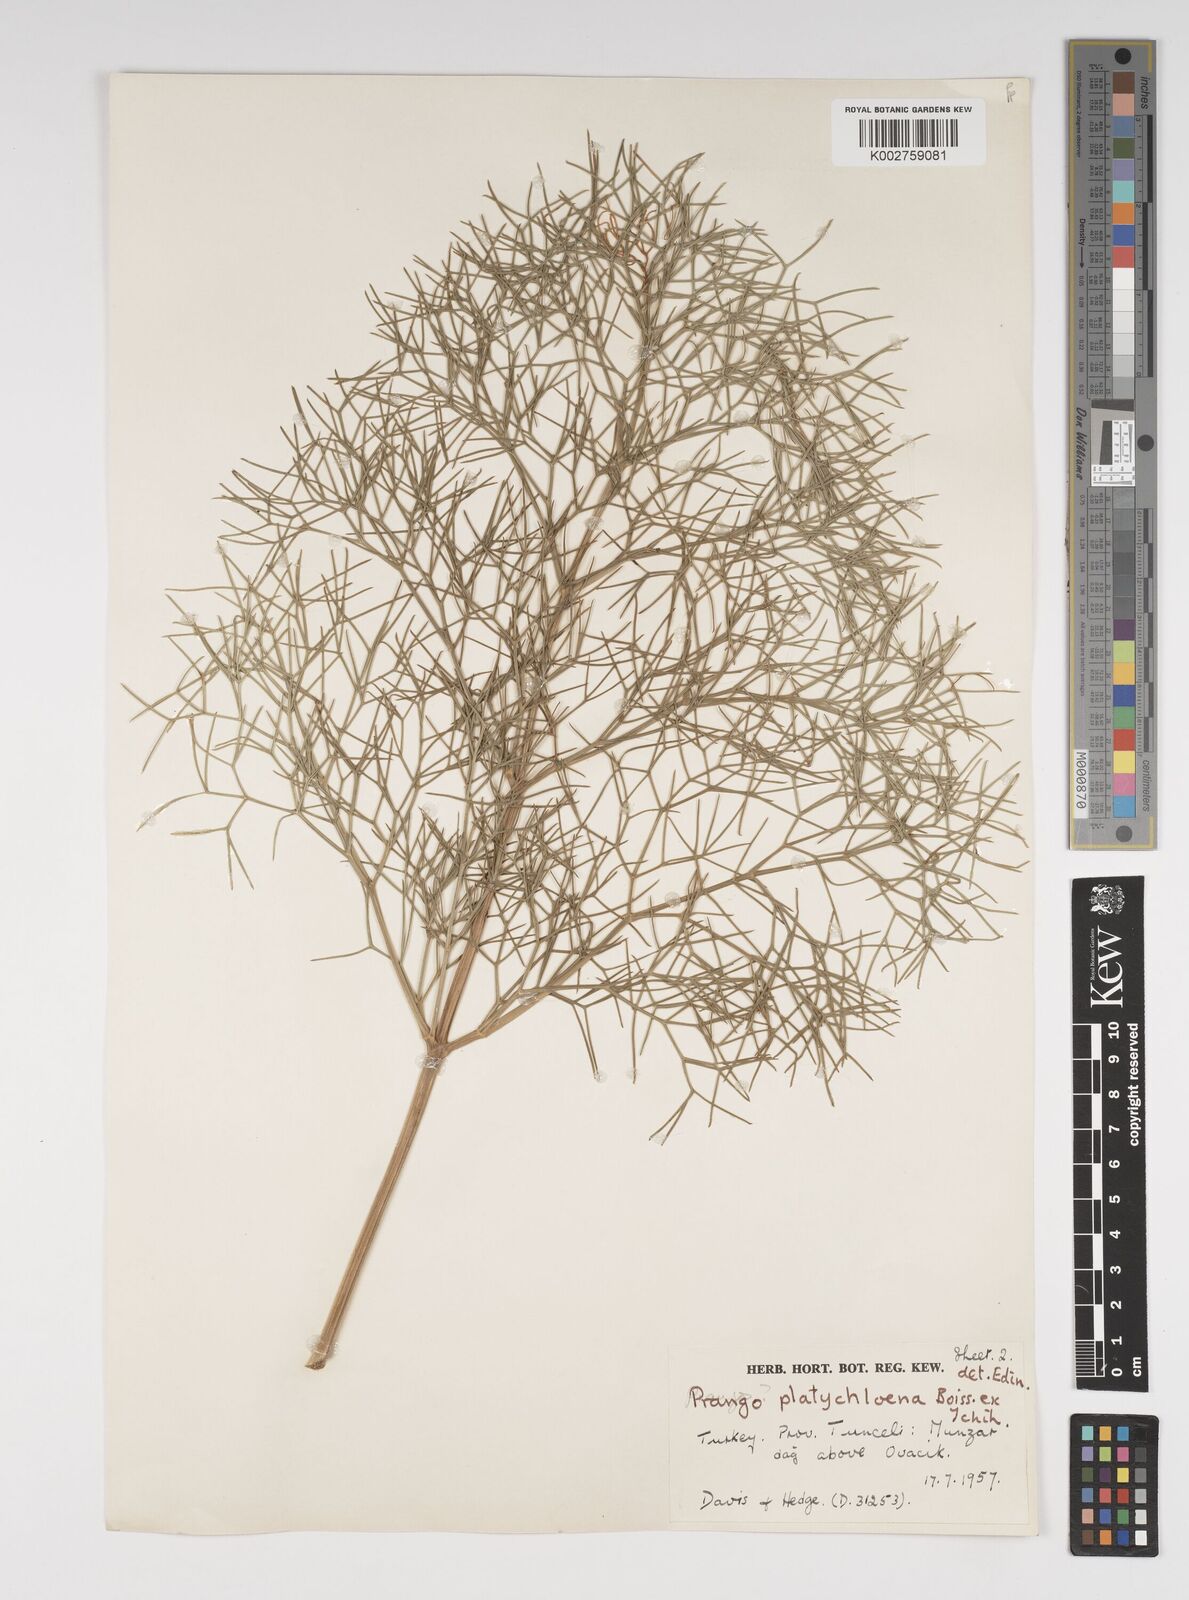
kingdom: Plantae
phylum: Tracheophyta
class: Magnoliopsida
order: Apiales
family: Apiaceae
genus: Prangos
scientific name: Prangos platychlaena
